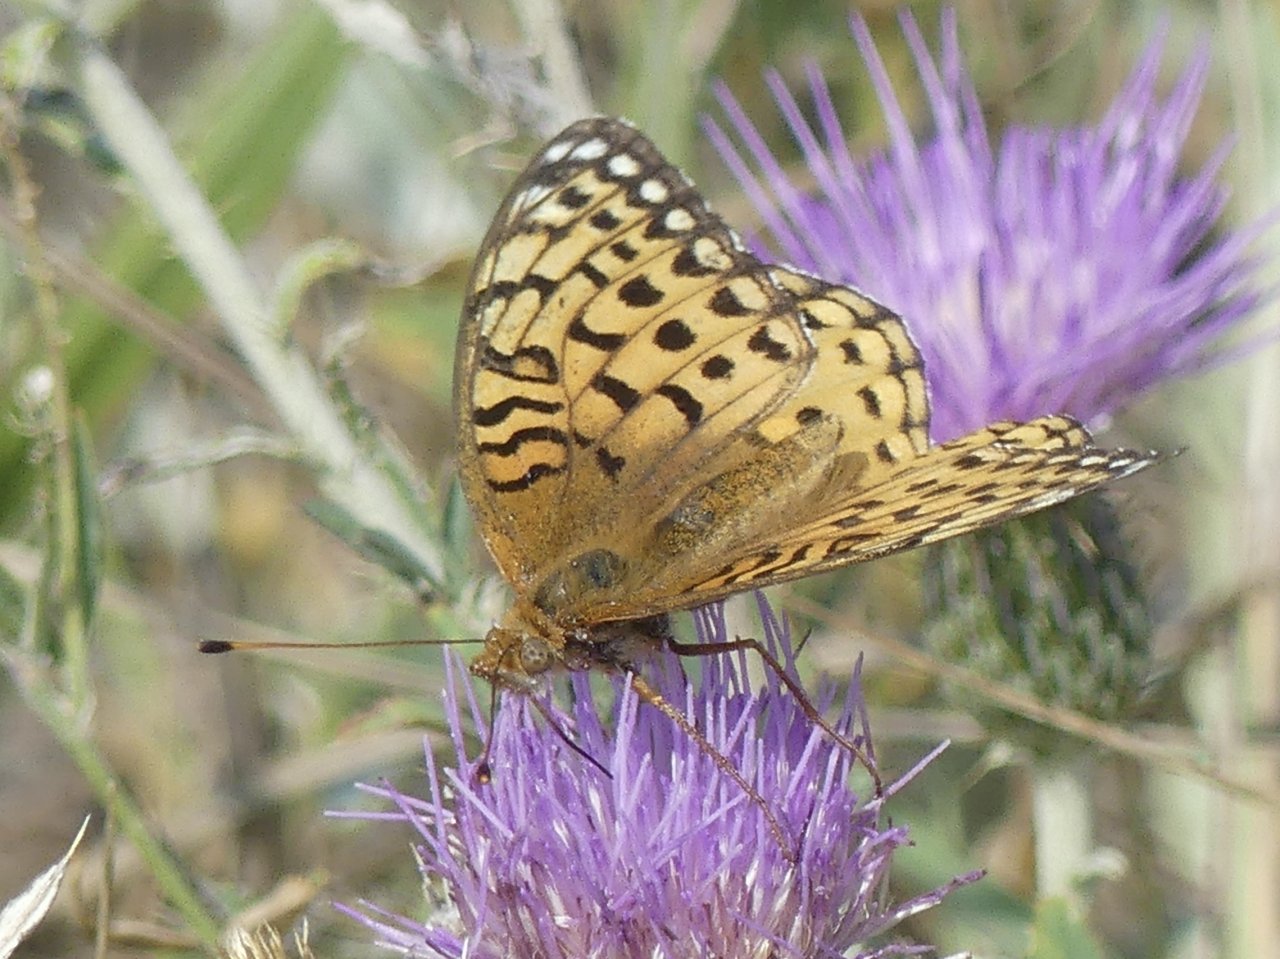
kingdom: Animalia
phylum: Arthropoda
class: Insecta
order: Lepidoptera
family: Nymphalidae
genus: Speyeria
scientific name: Speyeria atlantis
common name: Northwestern Fritillary
